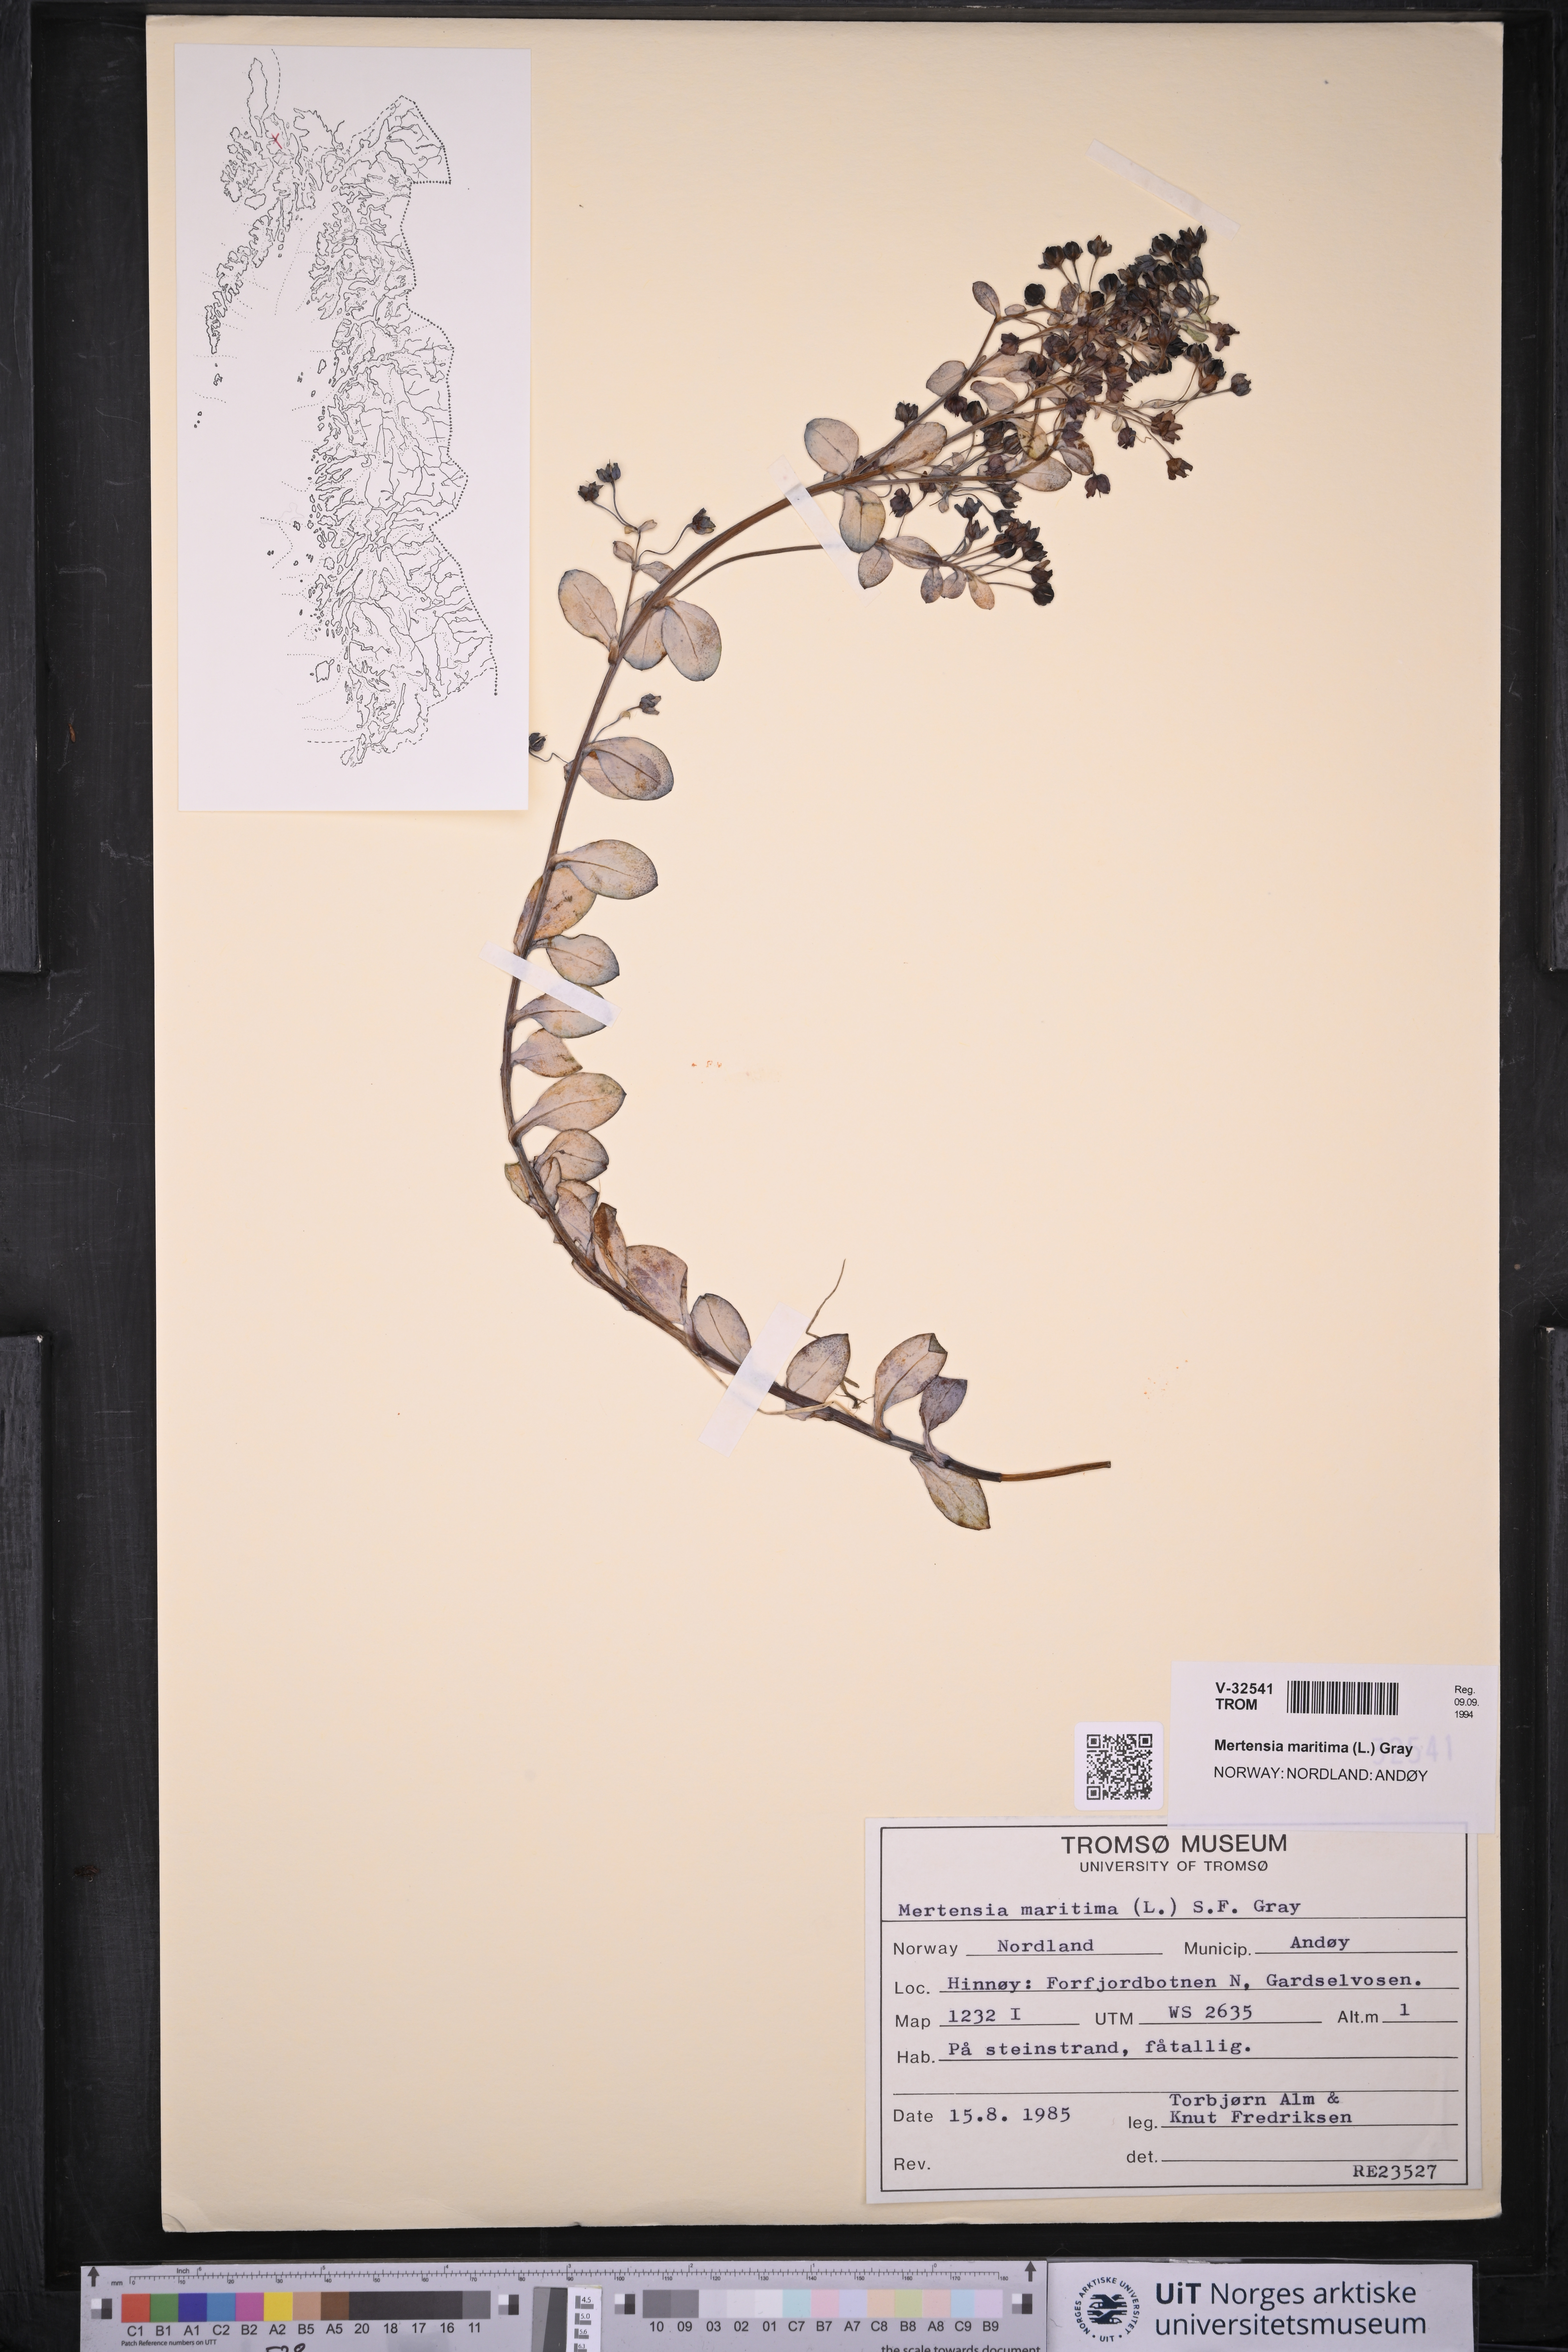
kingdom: Plantae
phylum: Tracheophyta
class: Magnoliopsida
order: Boraginales
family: Boraginaceae
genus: Mertensia
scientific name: Mertensia maritima
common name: Oysterplant
